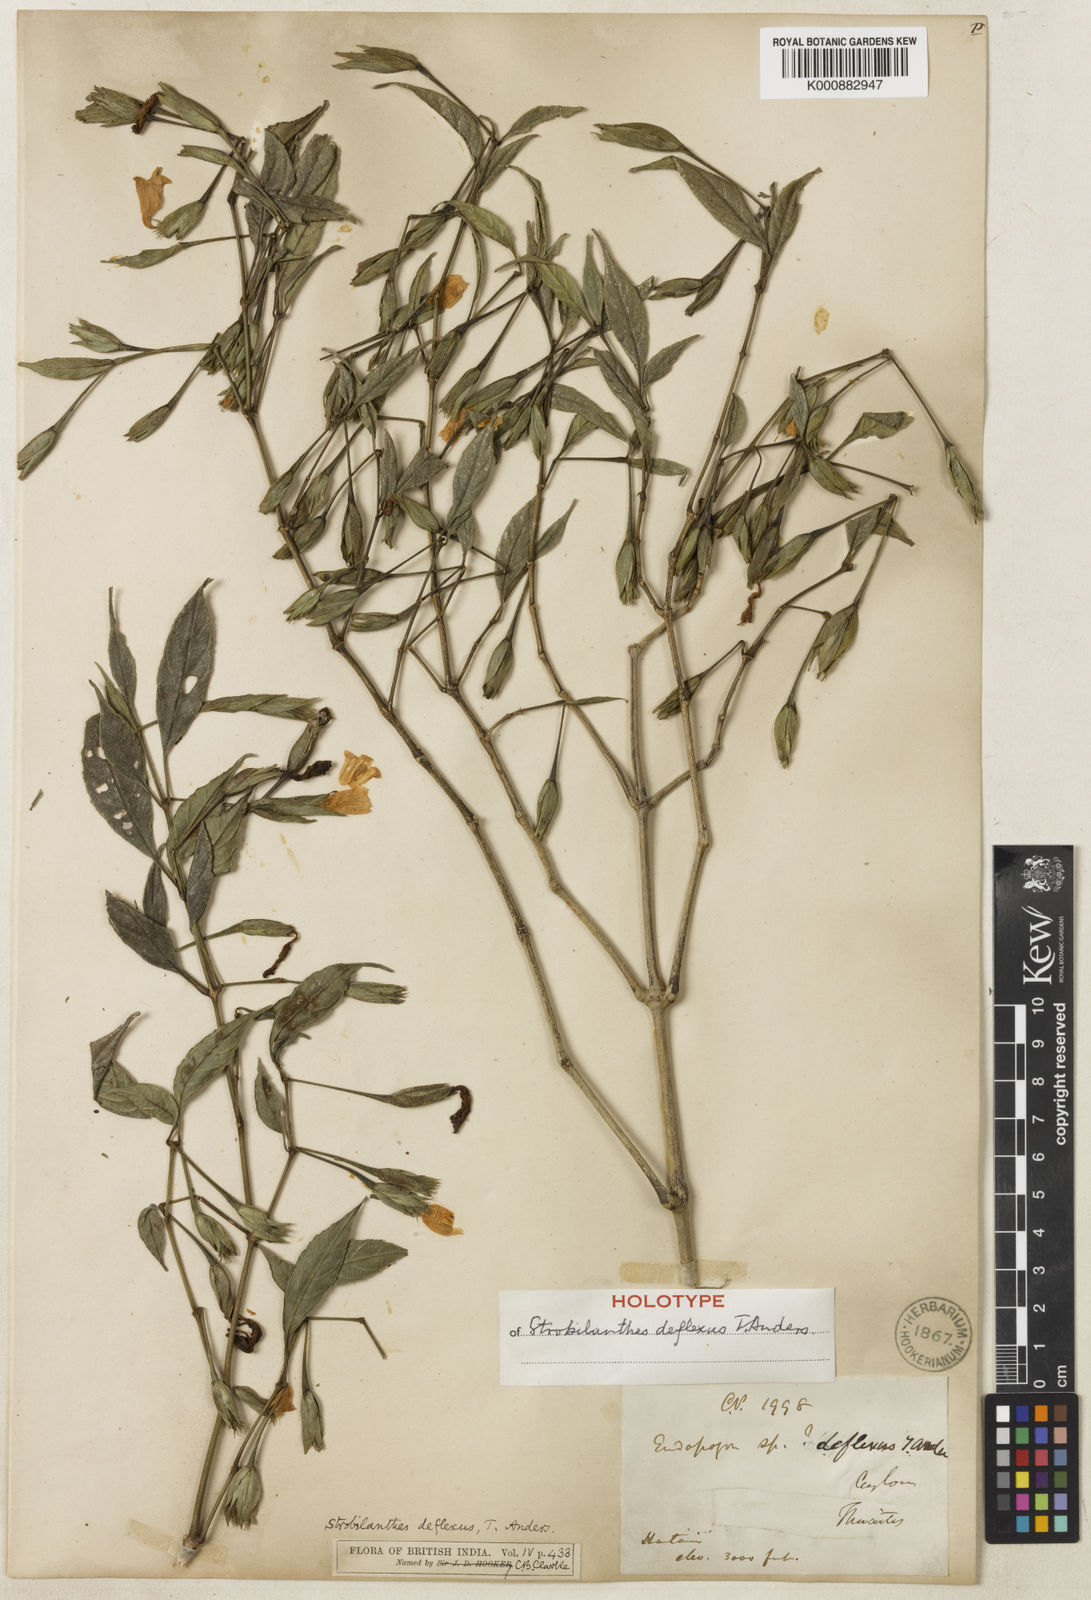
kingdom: Plantae
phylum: Tracheophyta
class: Magnoliopsida
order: Lamiales
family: Acanthaceae
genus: Strobilanthes
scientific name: Strobilanthes
